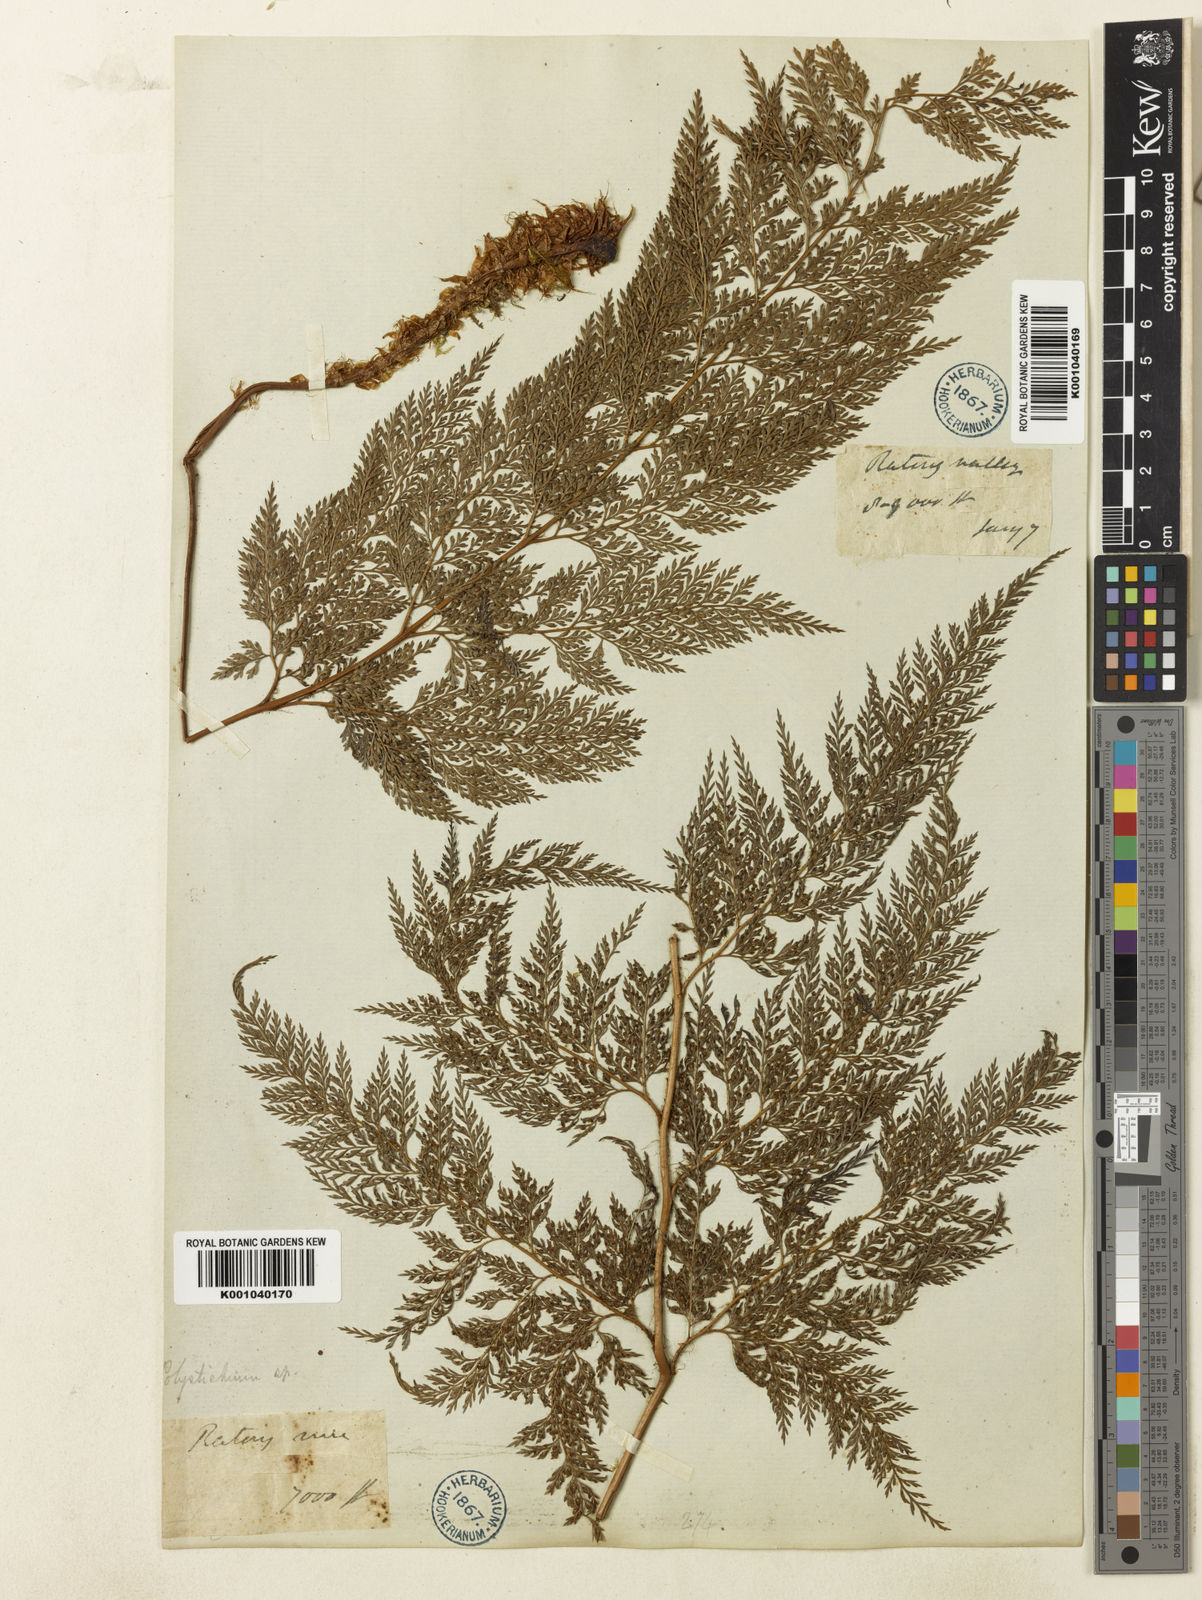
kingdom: Plantae
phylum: Tracheophyta
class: Polypodiopsida
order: Polypodiales
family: Dryopteridaceae
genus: Arachniodes
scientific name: Arachniodes superba
